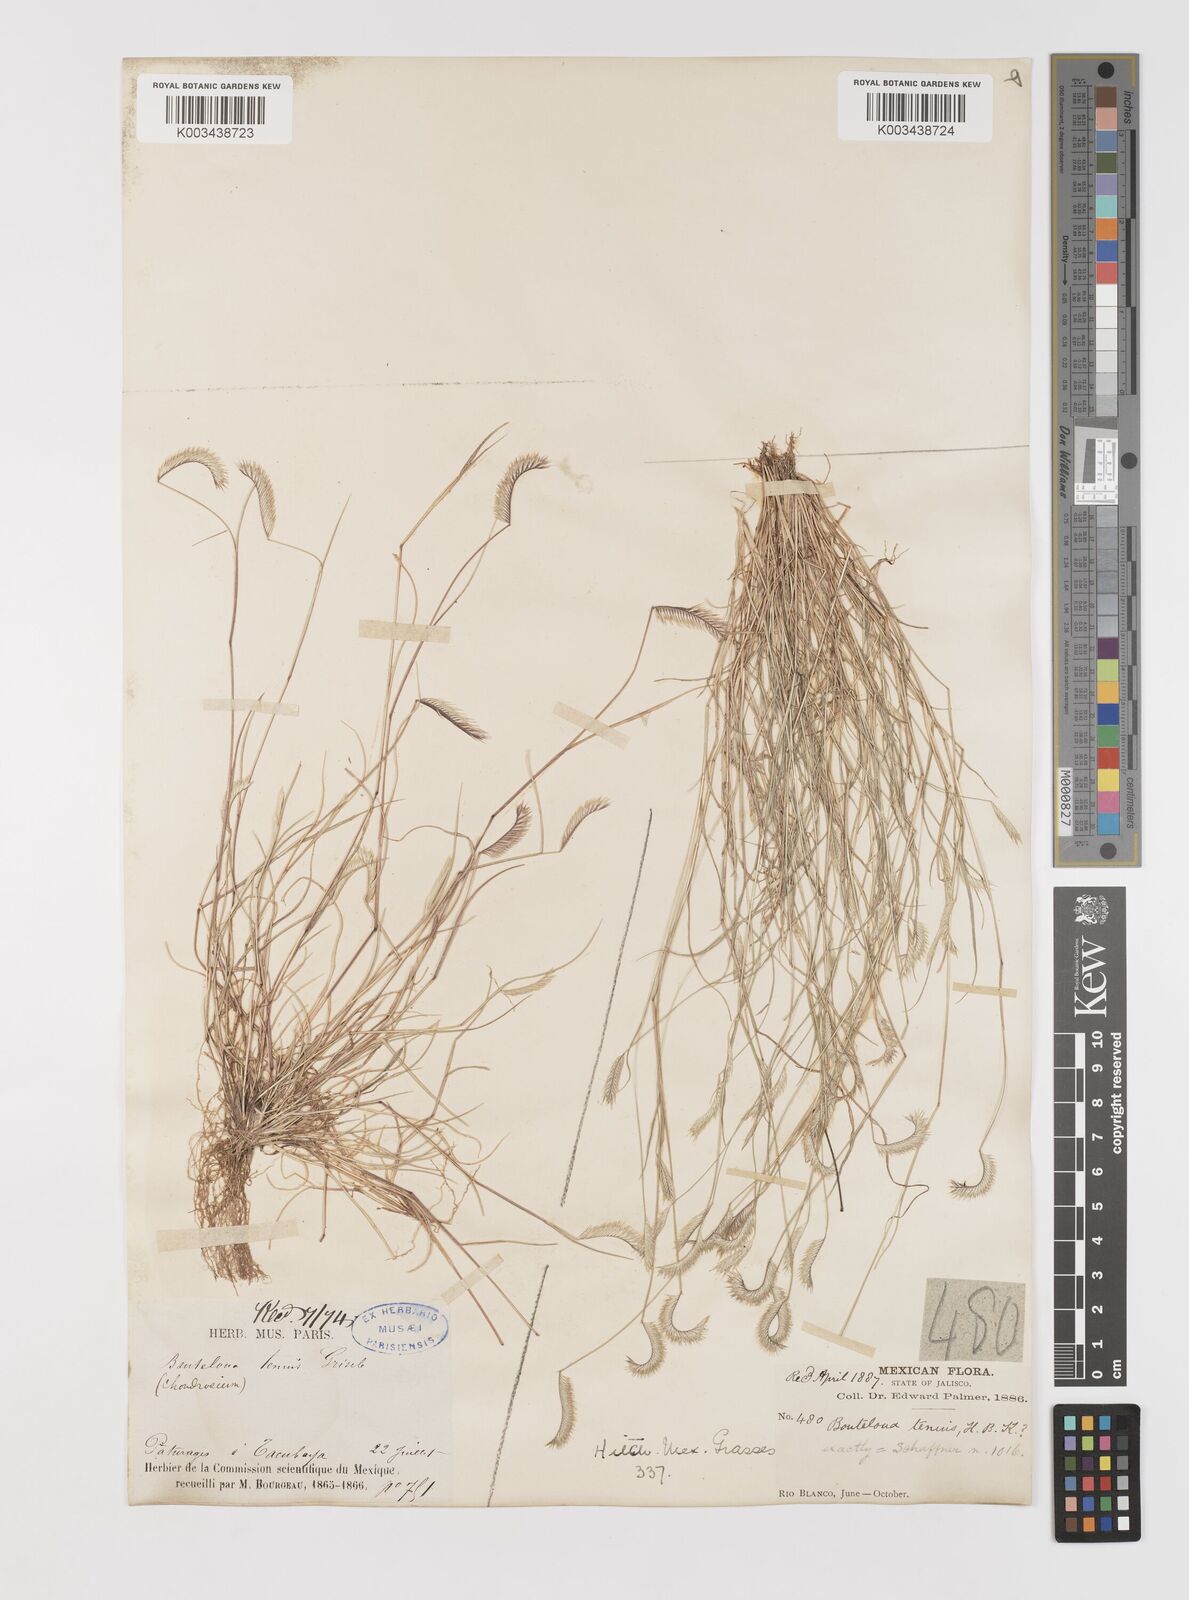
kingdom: Plantae
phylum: Tracheophyta
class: Liliopsida
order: Poales
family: Poaceae
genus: Bouteloua
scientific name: Bouteloua simplex
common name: Mat grama
